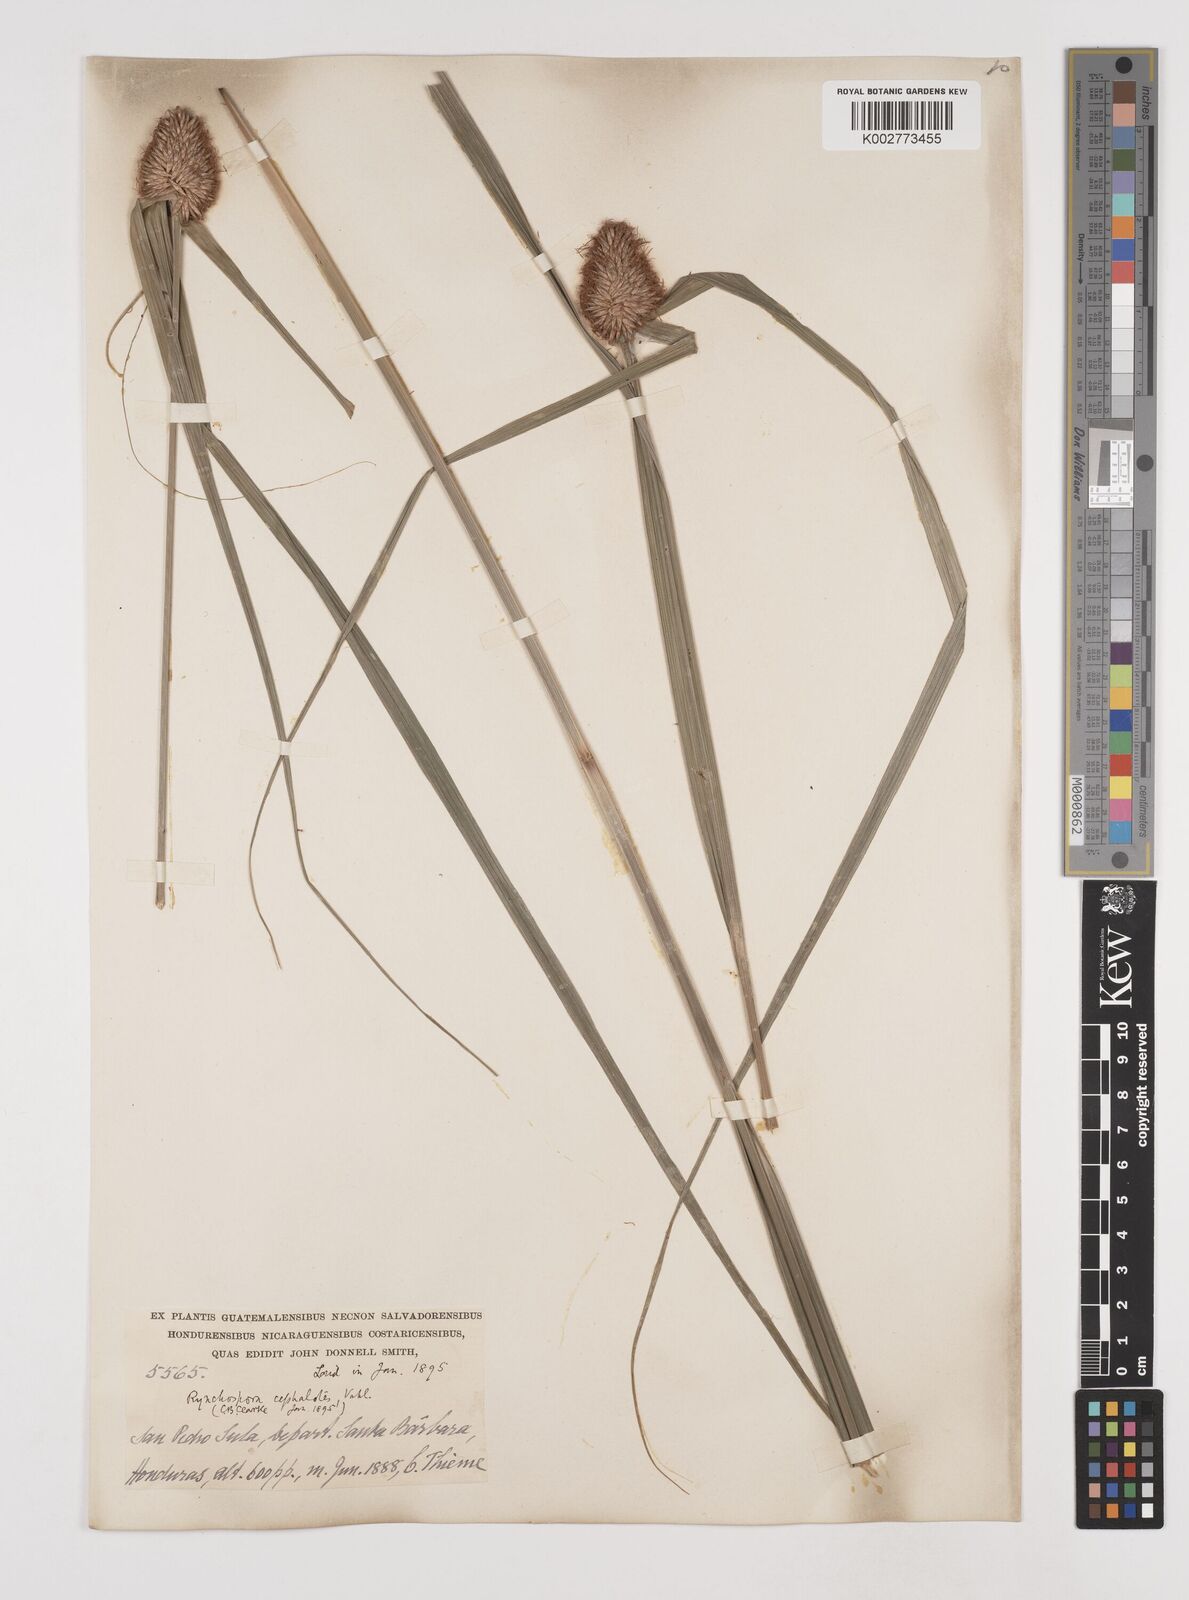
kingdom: Plantae
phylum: Tracheophyta
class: Liliopsida
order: Poales
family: Cyperaceae
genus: Rhynchospora
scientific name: Rhynchospora cephalotes
